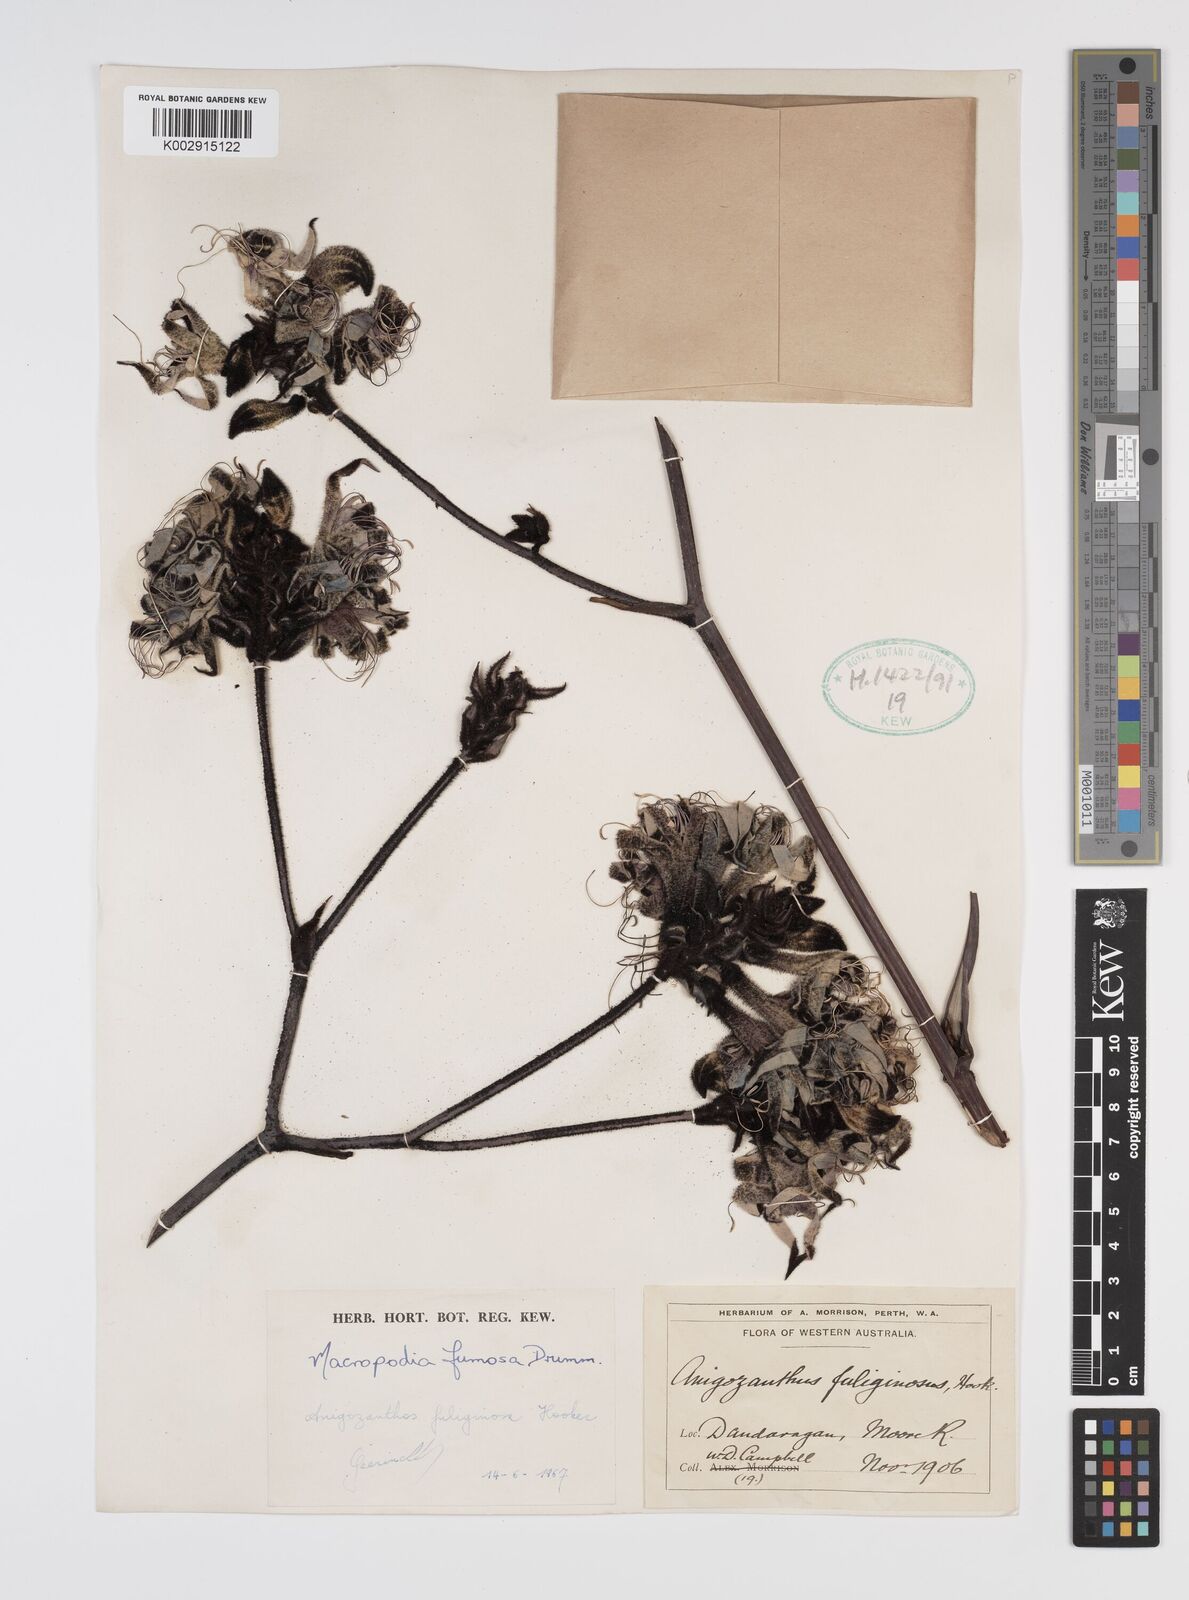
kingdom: Plantae
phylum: Tracheophyta
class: Liliopsida
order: Commelinales
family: Haemodoraceae
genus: Macropidia
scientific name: Macropidia fuliginosa
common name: Black kangaroo-paw
